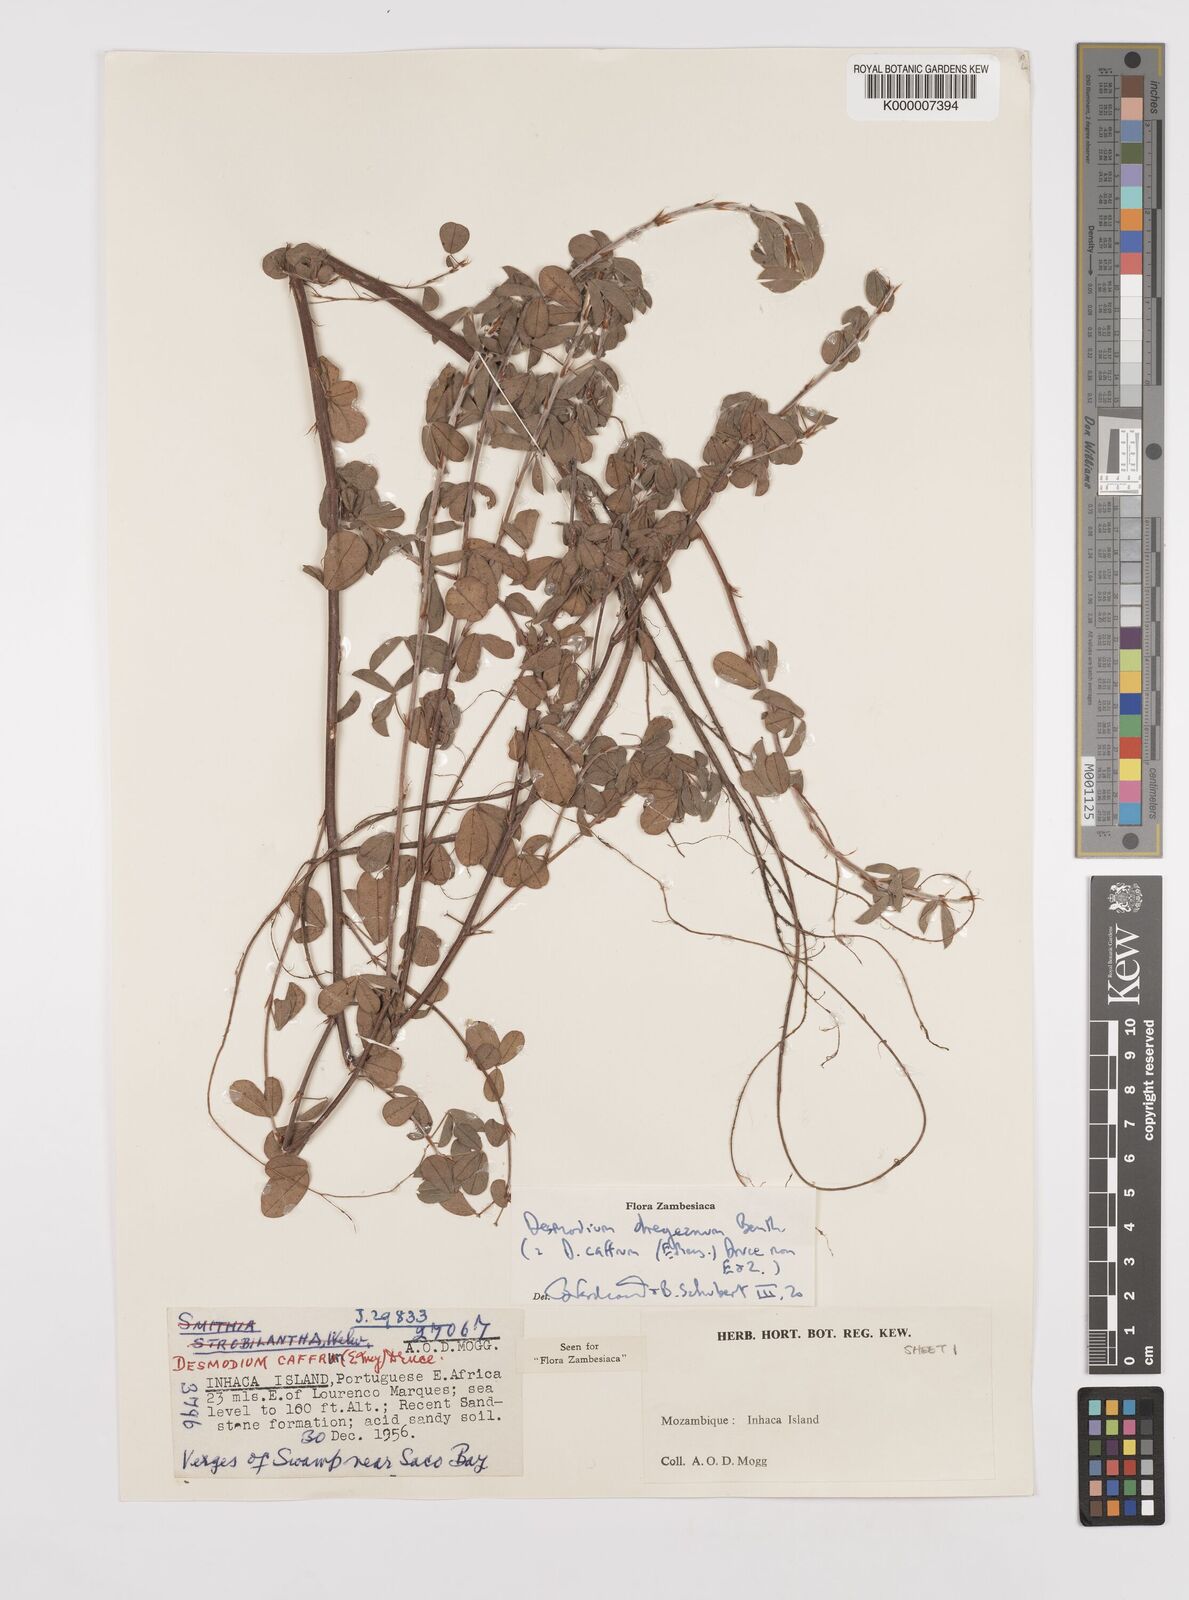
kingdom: Plantae
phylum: Tracheophyta
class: Magnoliopsida
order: Fabales
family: Fabaceae
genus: Grona
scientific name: Grona caffra
